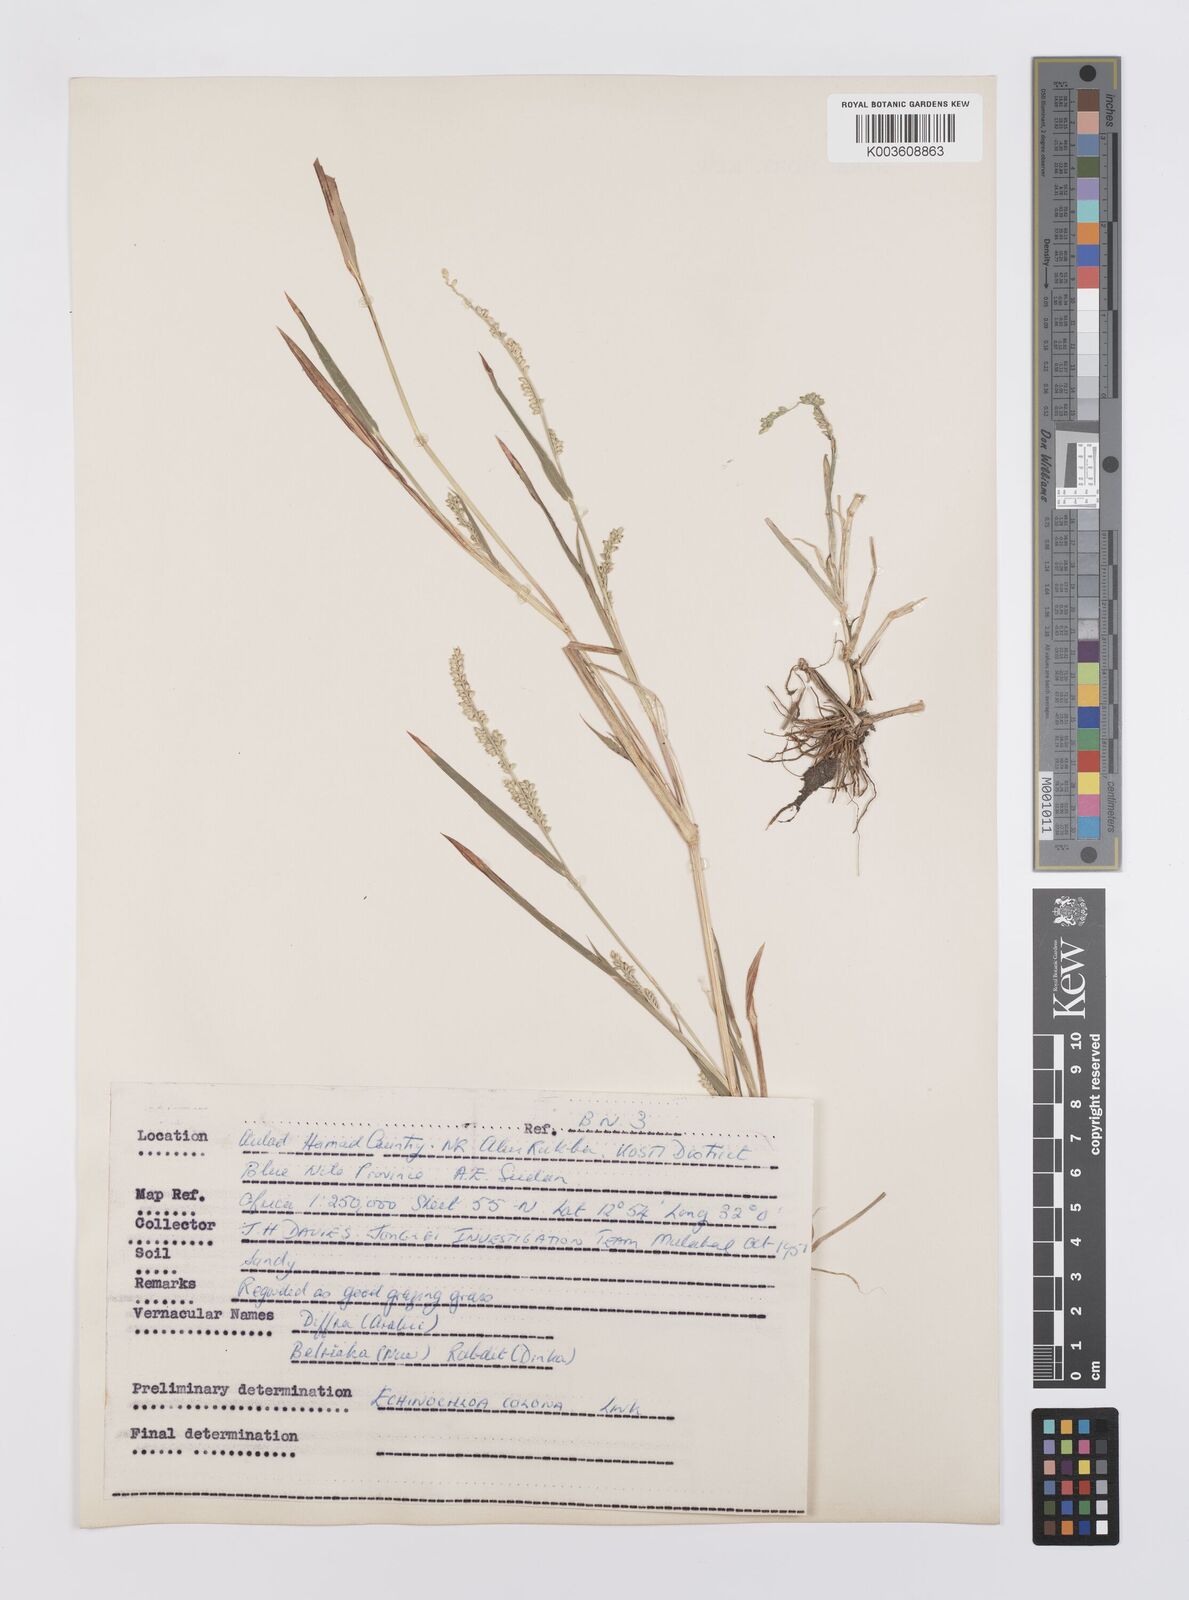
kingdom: Plantae
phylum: Tracheophyta
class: Liliopsida
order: Poales
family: Poaceae
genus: Echinochloa
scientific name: Echinochloa colonum
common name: Jungle rice
